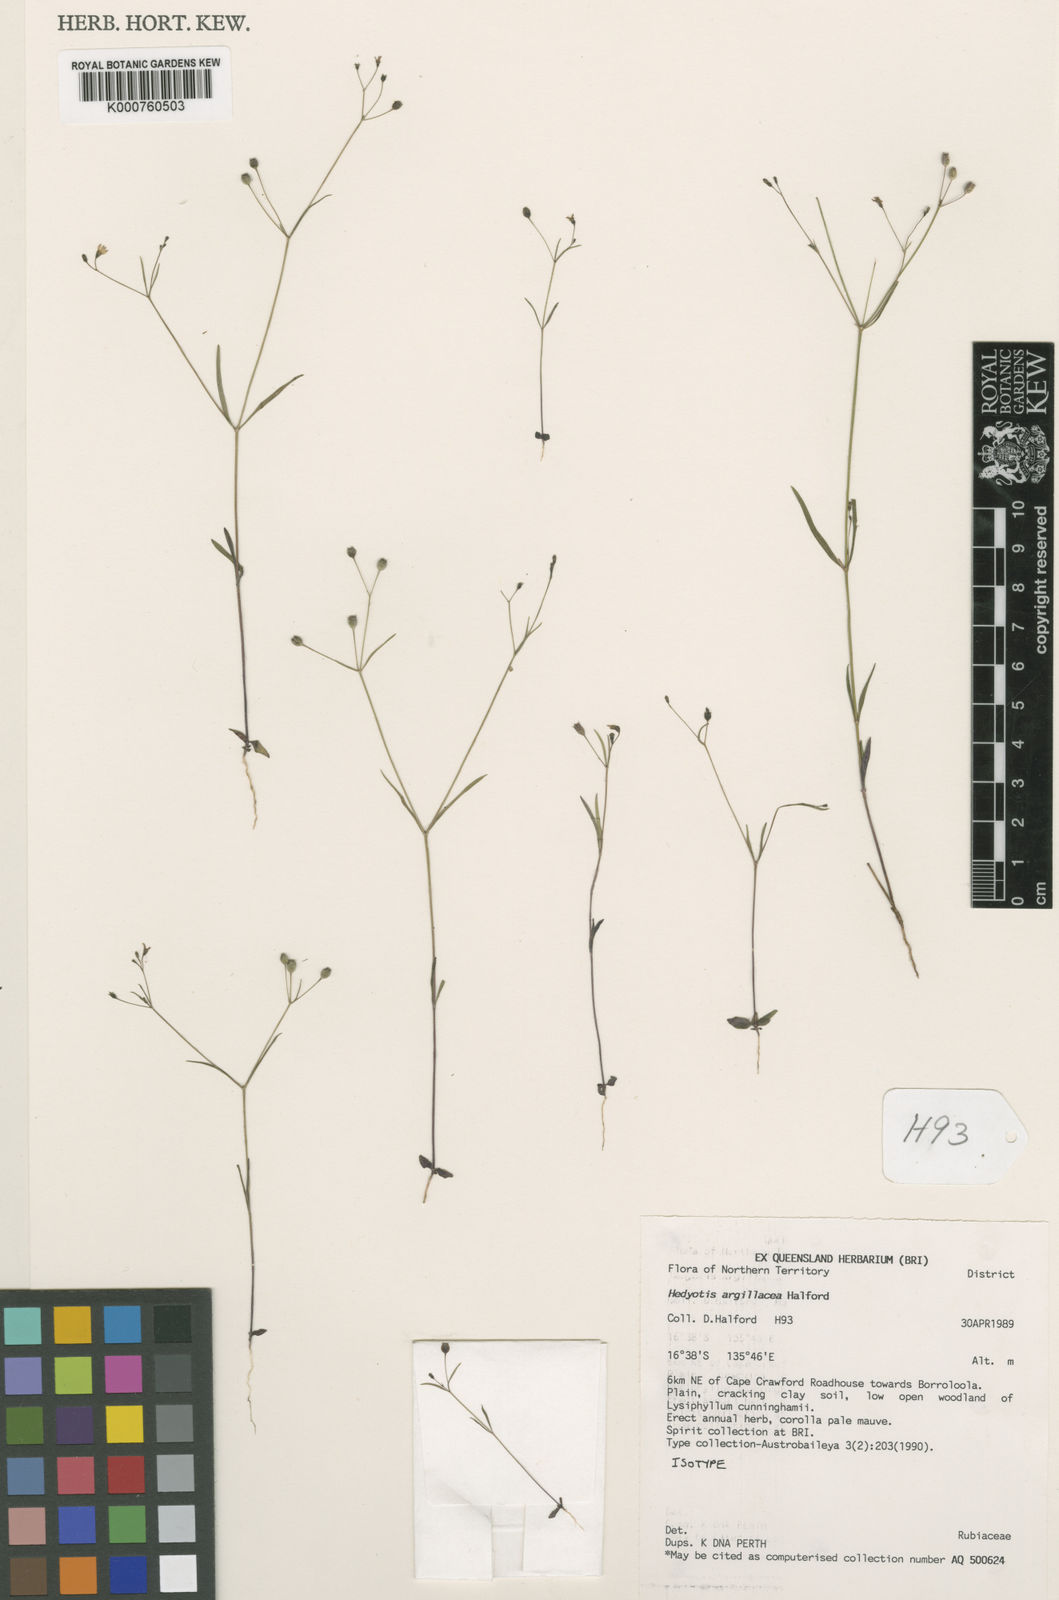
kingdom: Plantae
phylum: Tracheophyta
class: Magnoliopsida
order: Gentianales
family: Rubiaceae
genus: Dolichocarpa
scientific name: Dolichocarpa argillacea
